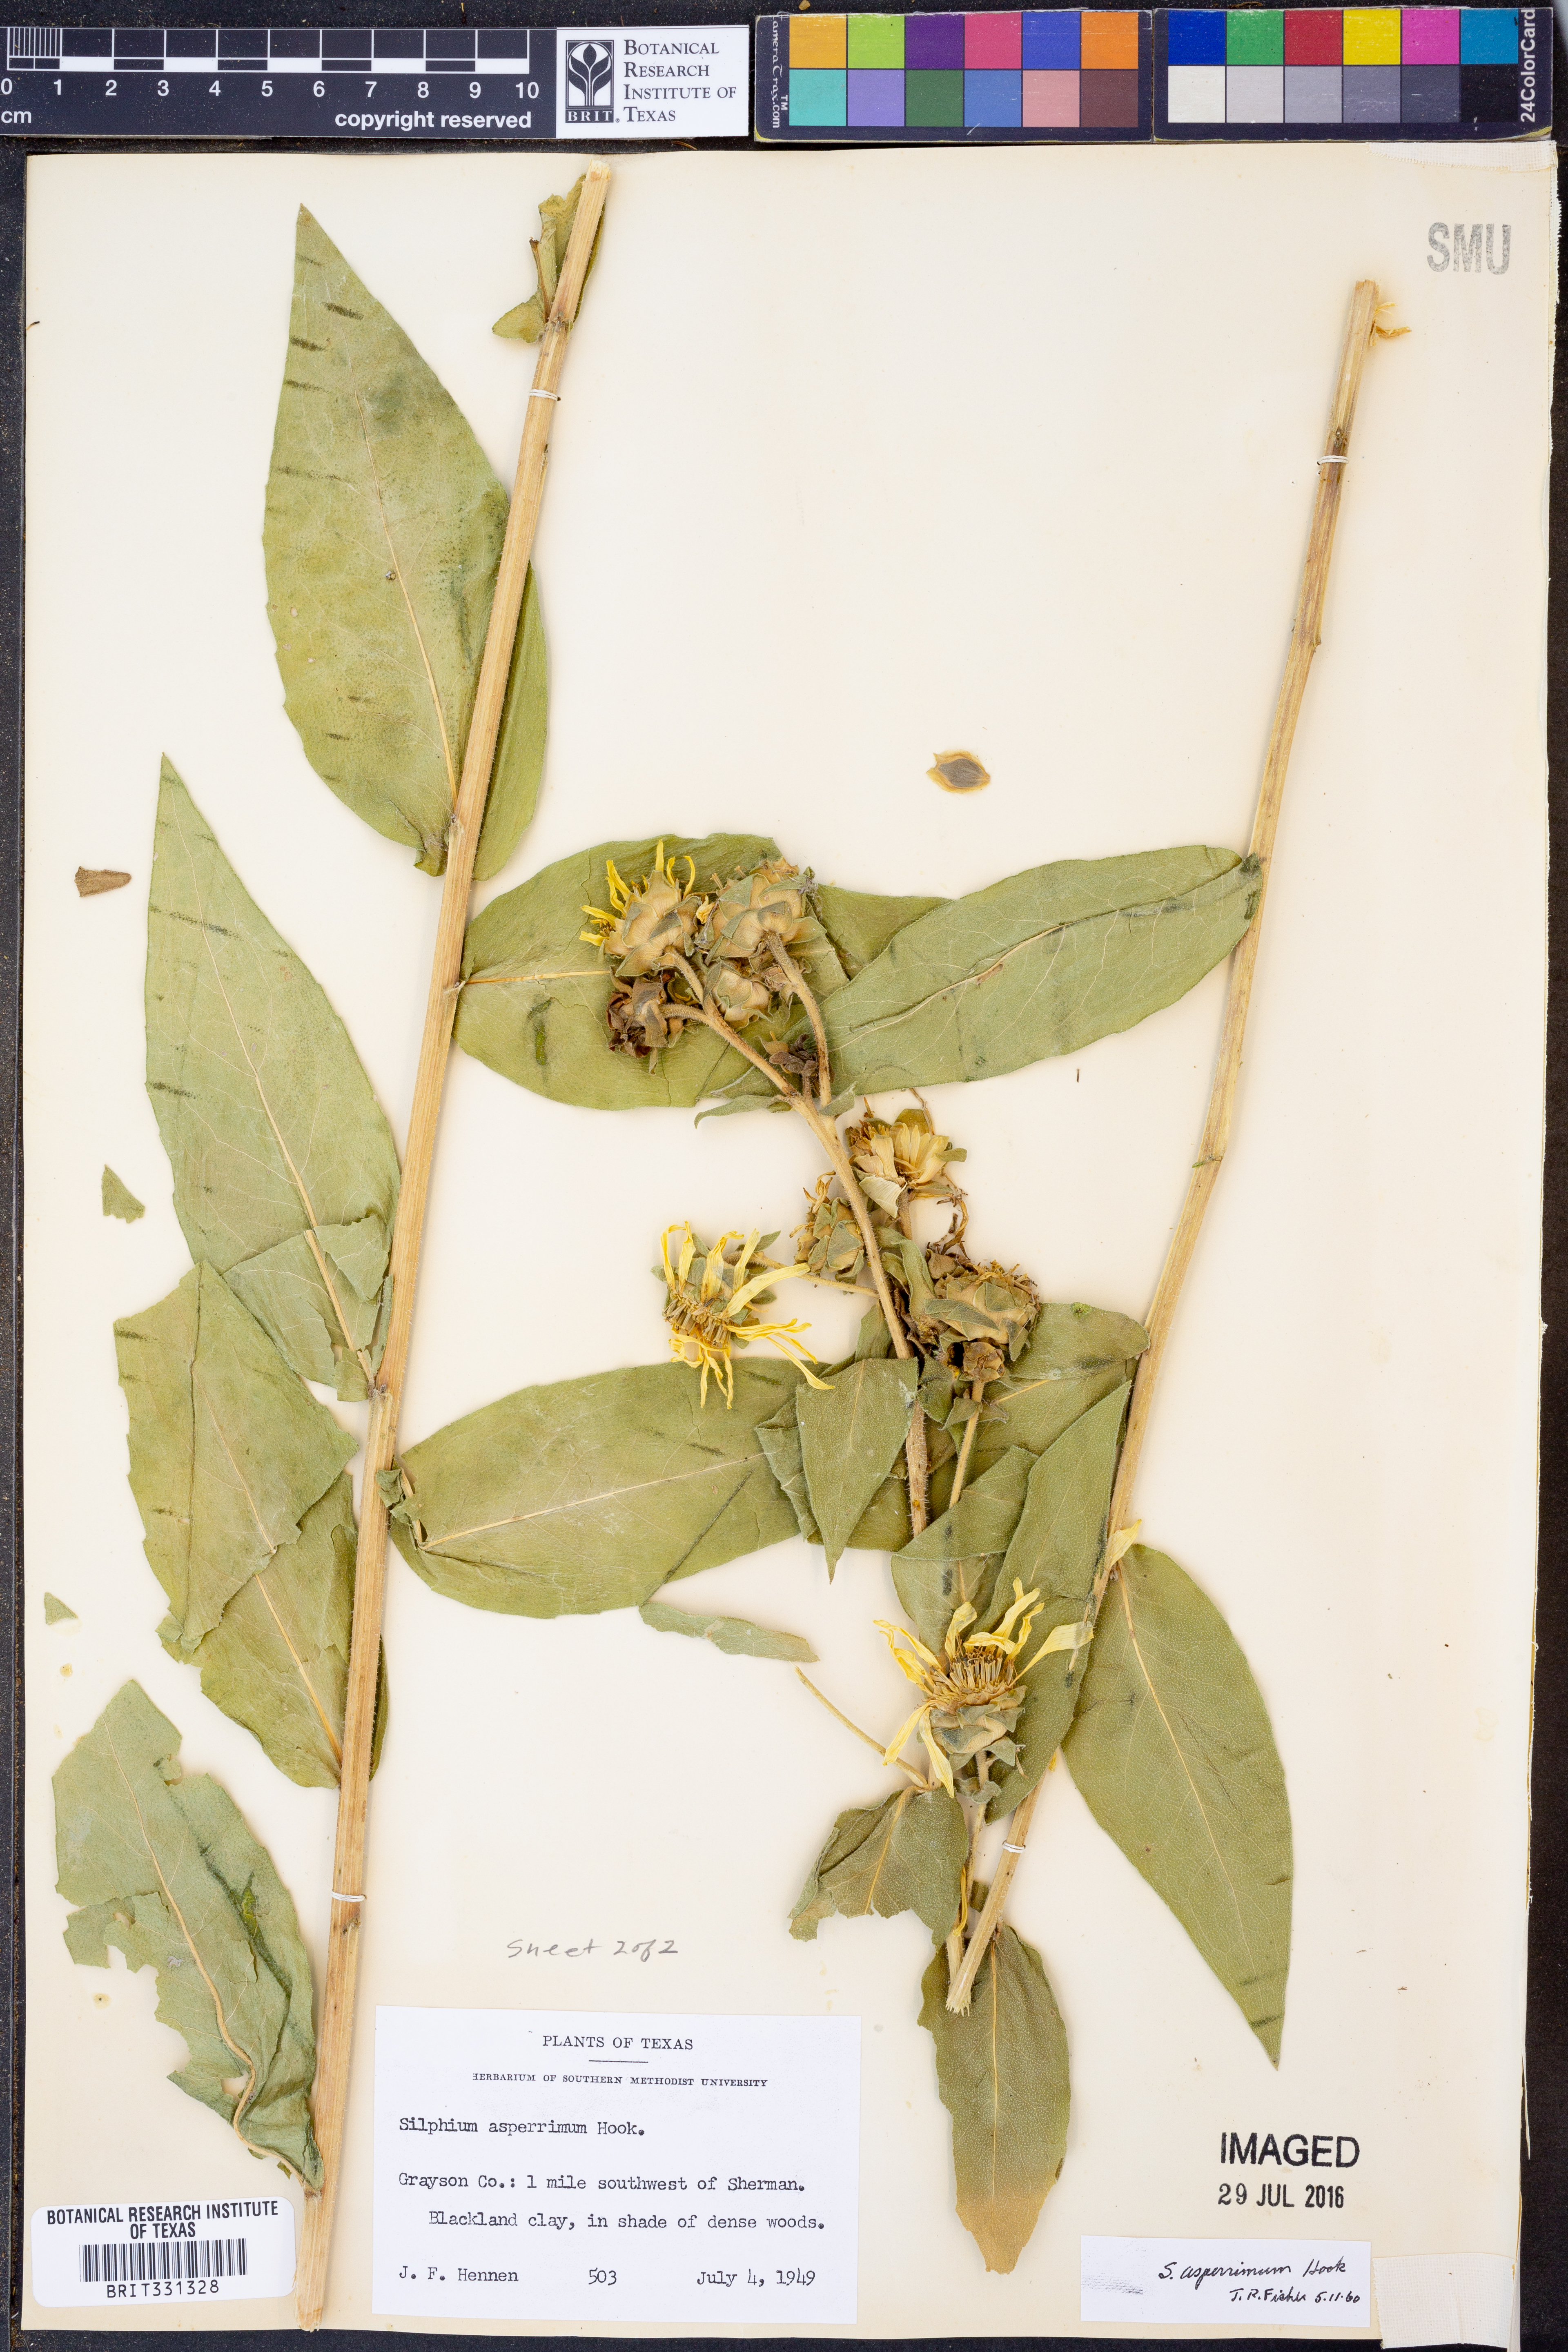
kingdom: Plantae
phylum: Tracheophyta
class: Magnoliopsida
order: Asterales
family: Asteraceae
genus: Silphium
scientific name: Silphium asperrimum
